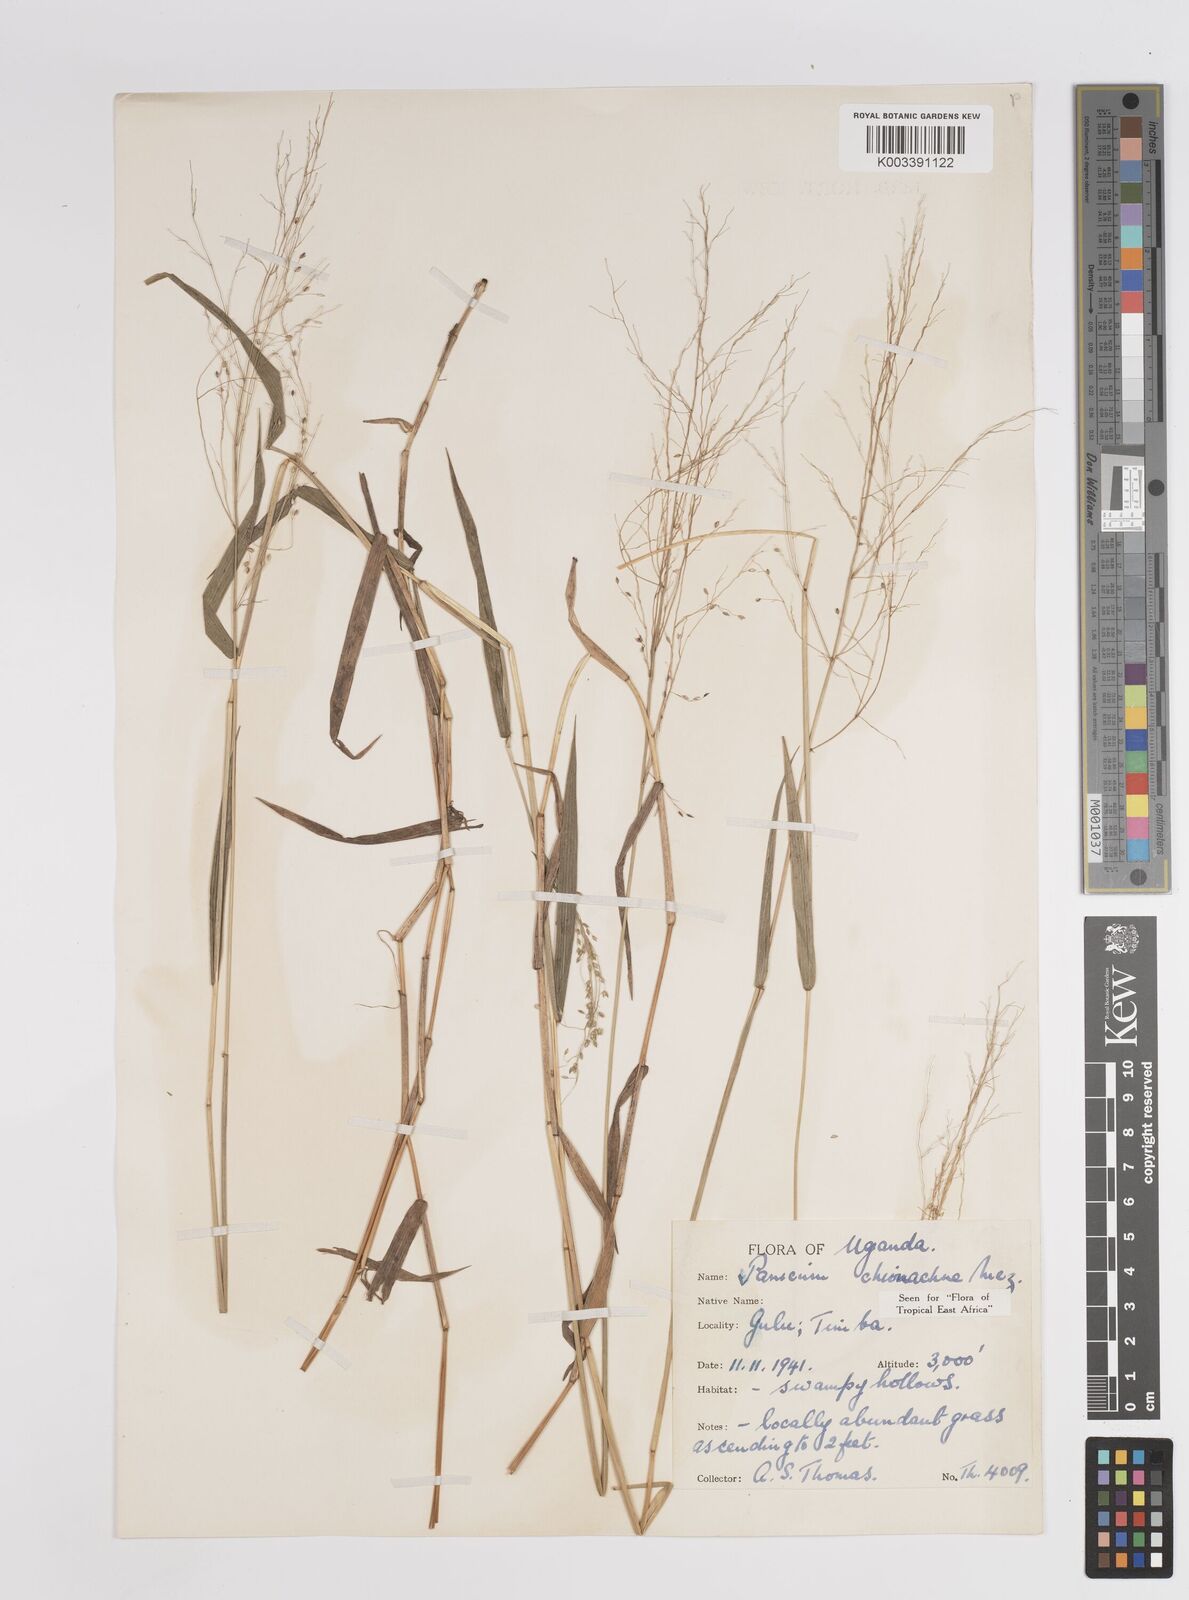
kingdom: Plantae
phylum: Tracheophyta
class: Liliopsida
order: Poales
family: Poaceae
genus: Panicum
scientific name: Panicum chionachne
